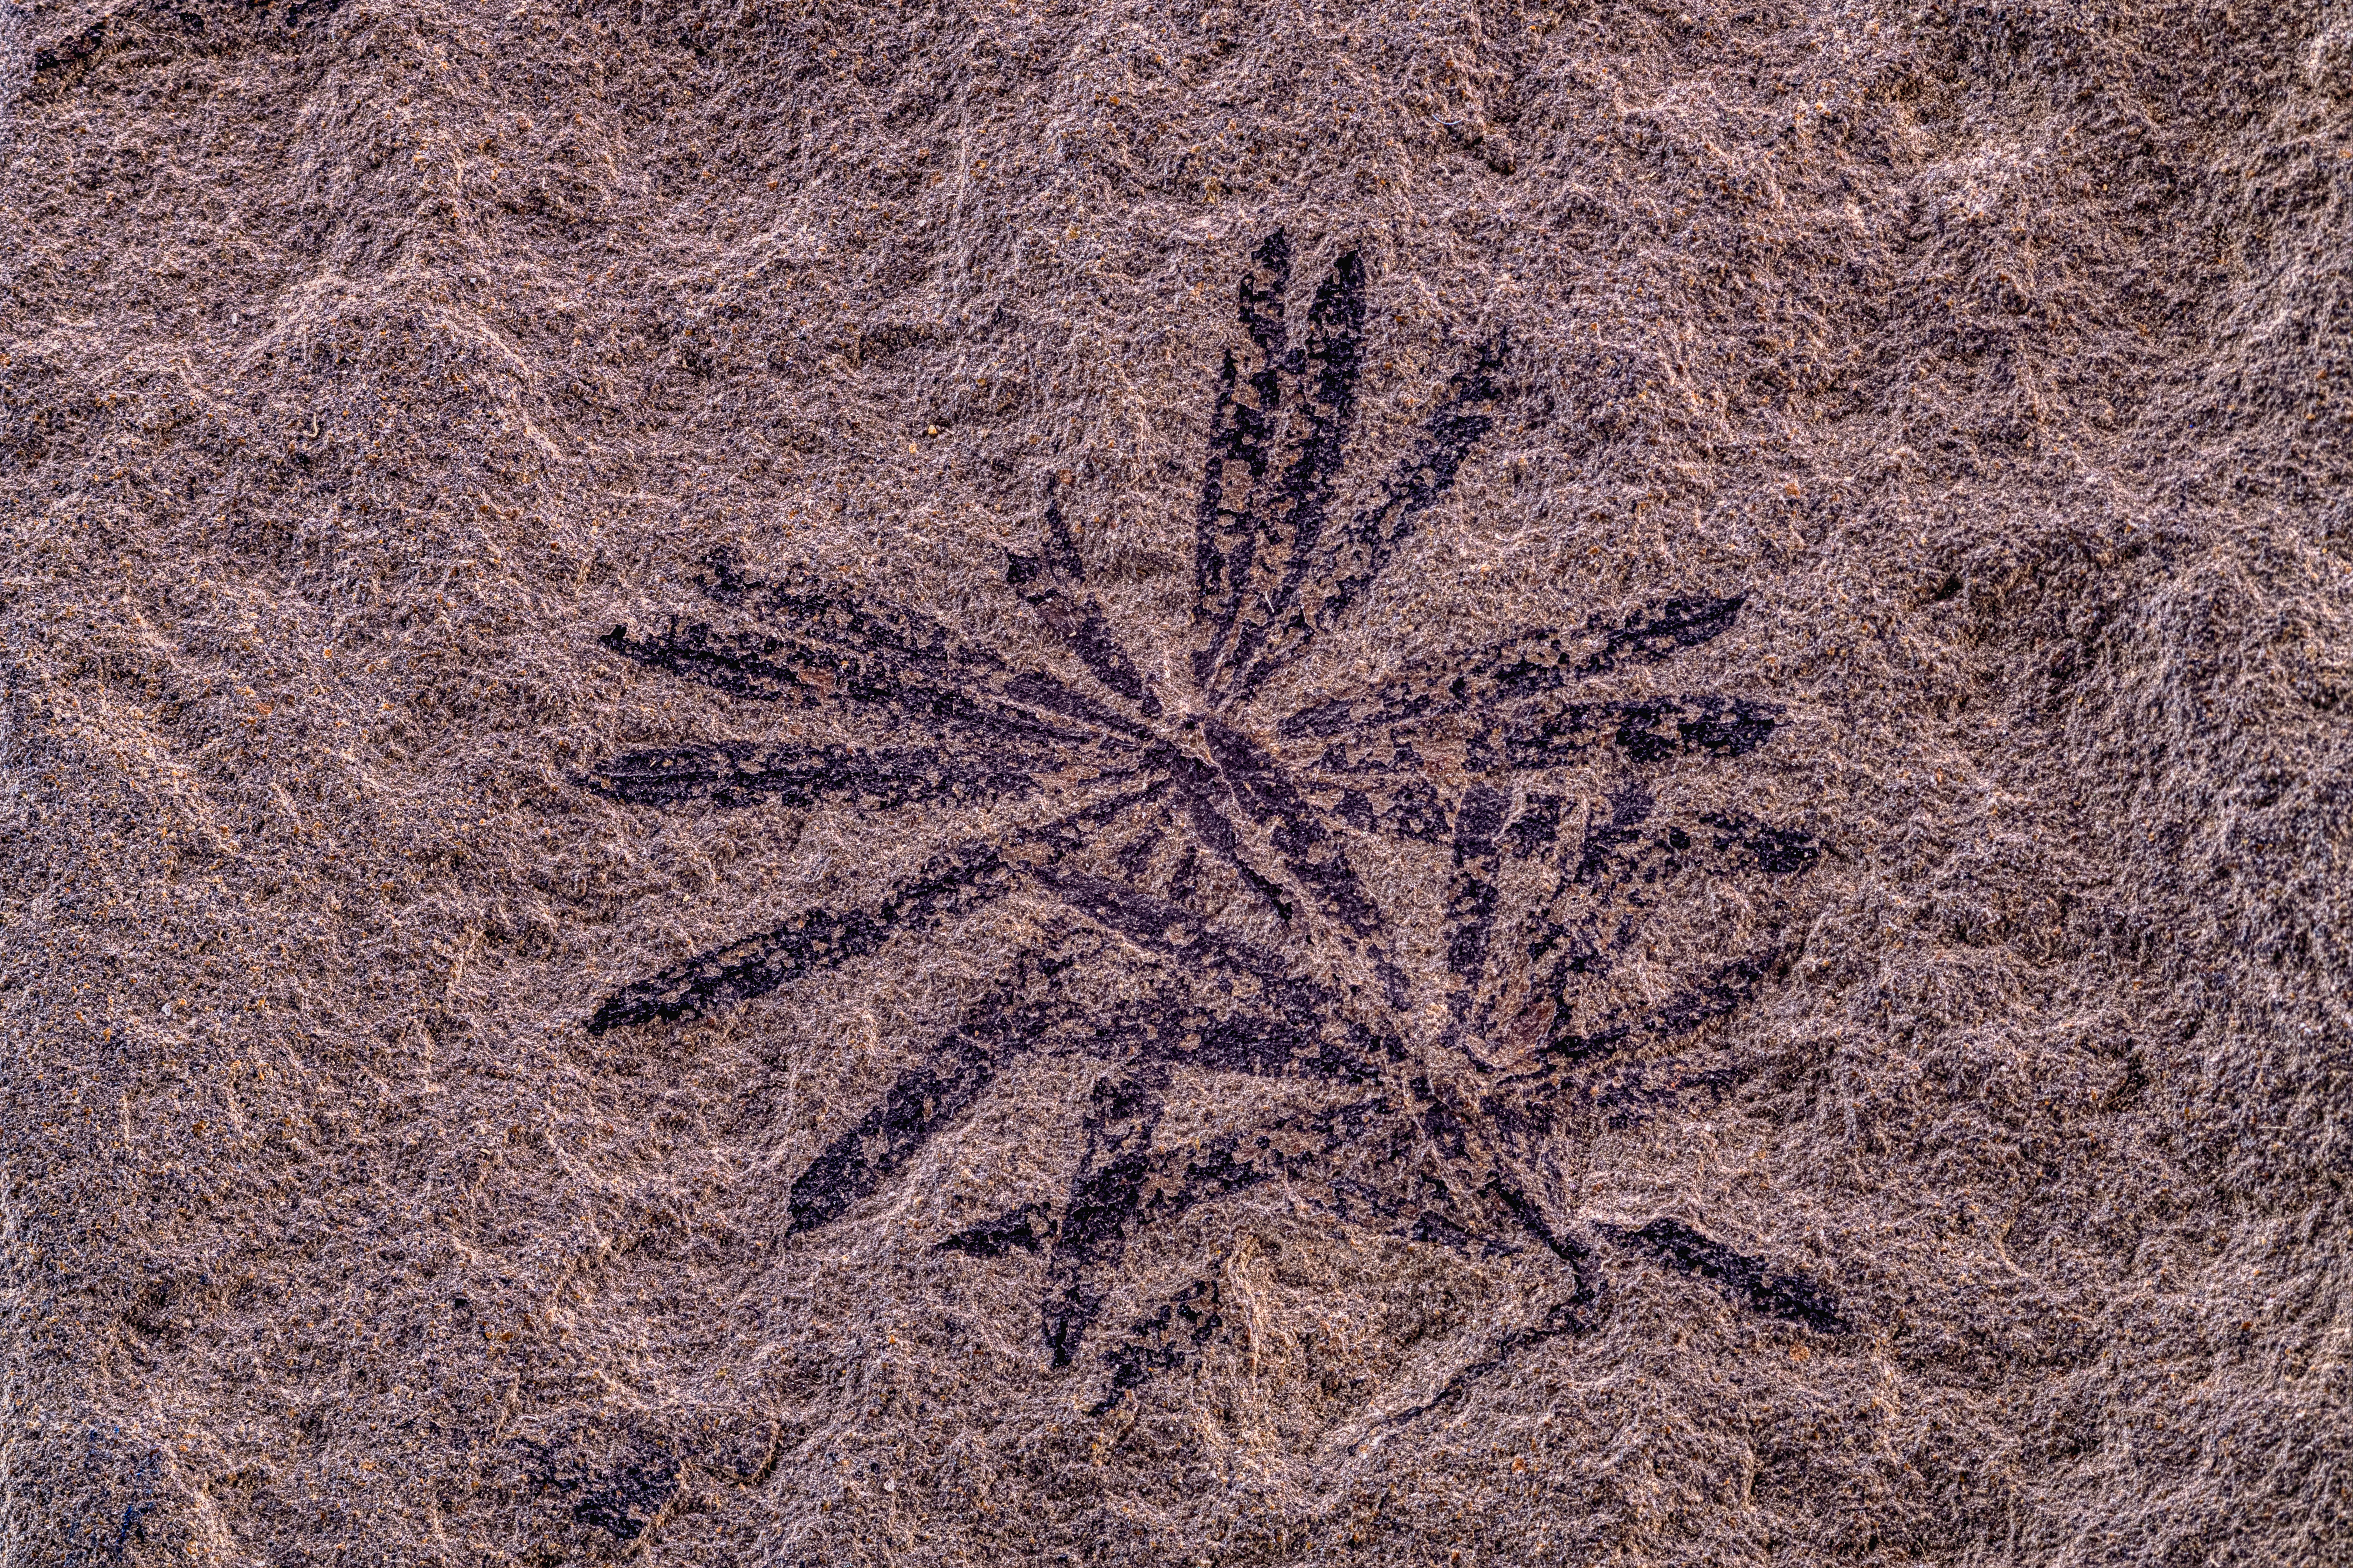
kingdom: Plantae
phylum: Tracheophyta
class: Polypodiopsida
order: Equisetales
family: Calamitaceae
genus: Neocalamites
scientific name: Neocalamites
